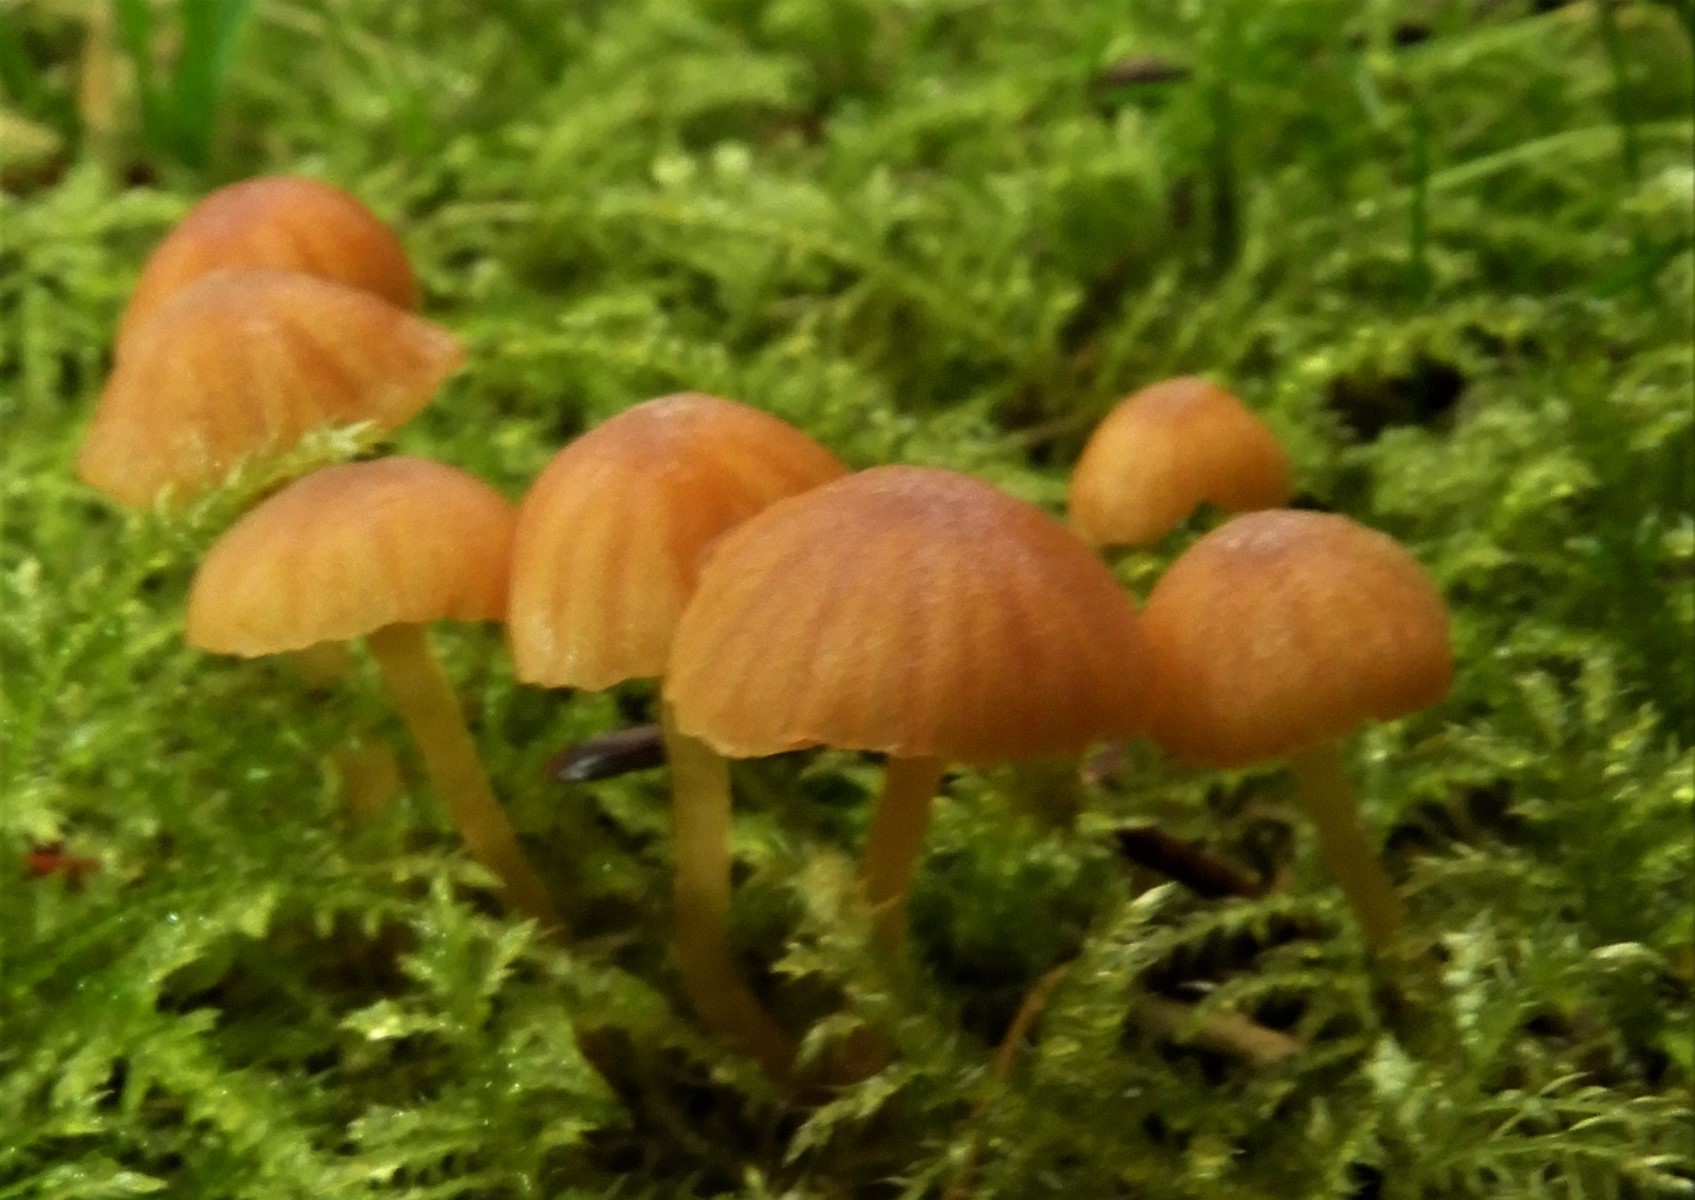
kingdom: Fungi
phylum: Basidiomycota
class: Agaricomycetes
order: Agaricales
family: Hymenogastraceae
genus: Galerina
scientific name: Galerina
